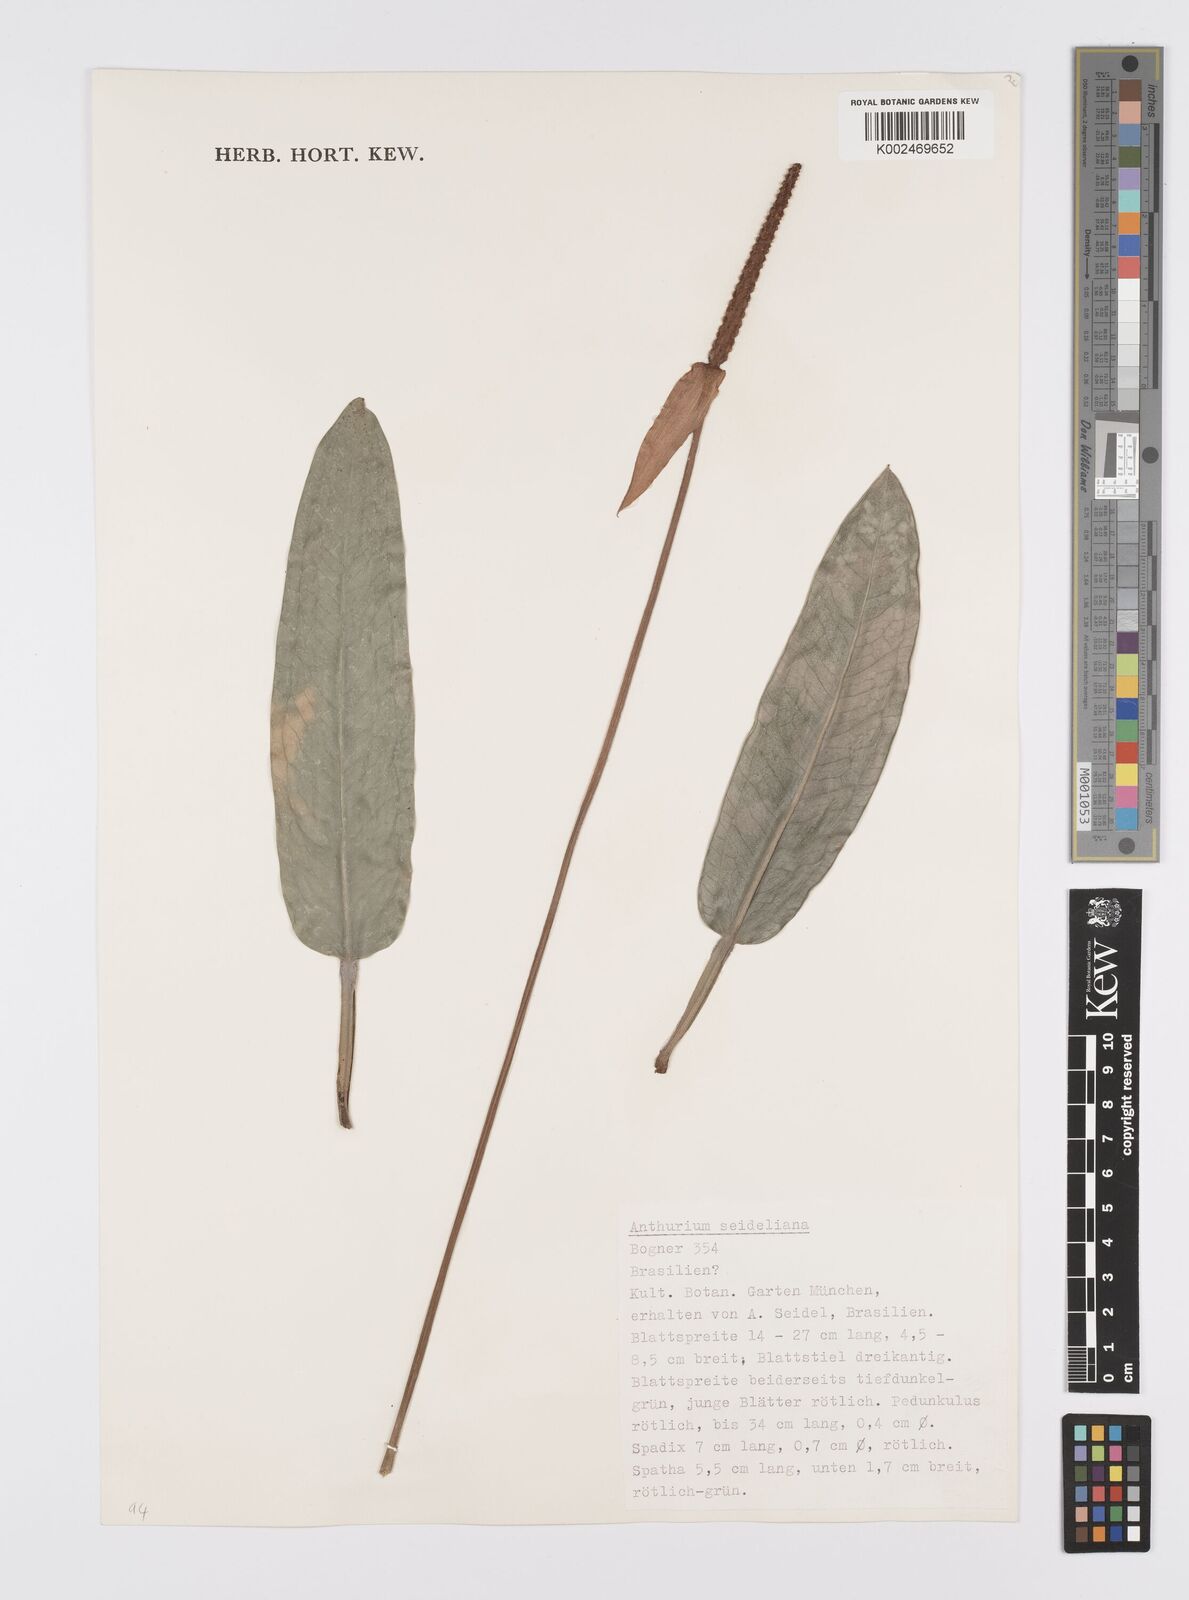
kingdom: Plantae
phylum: Tracheophyta
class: Liliopsida
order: Alismatales
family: Araceae
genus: Anthurium
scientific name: Anthurium
